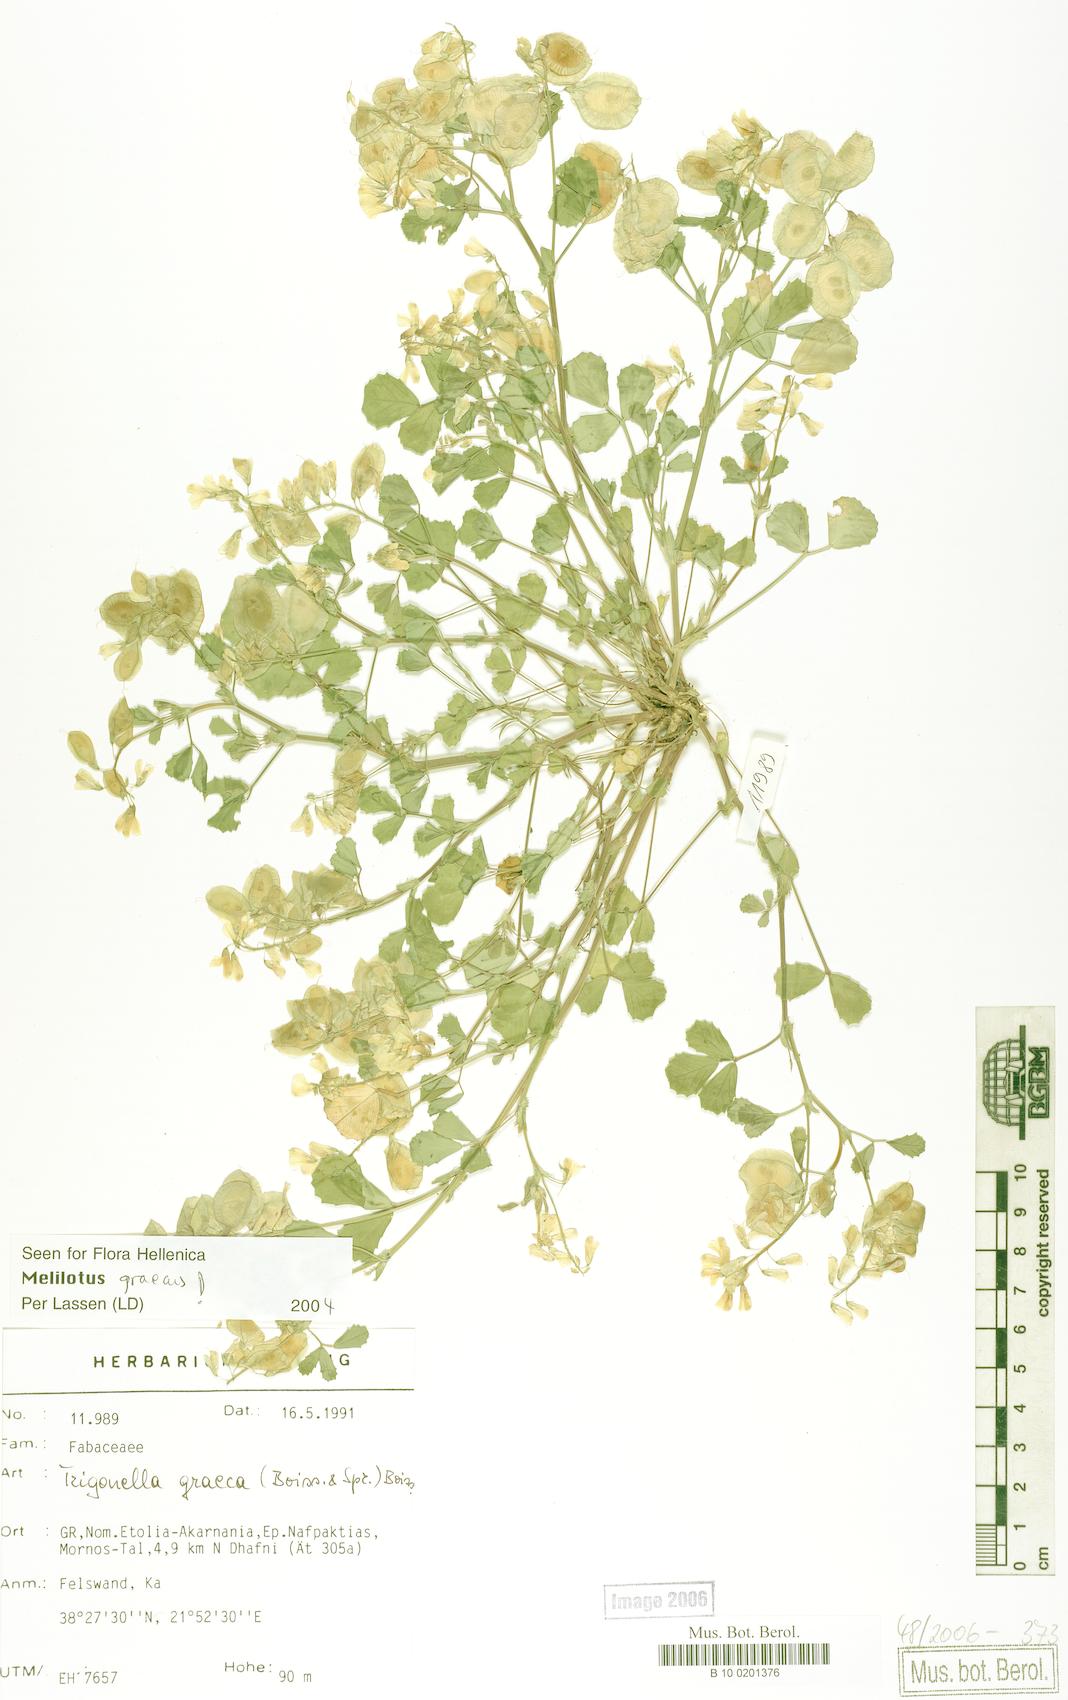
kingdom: Plantae
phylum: Tracheophyta
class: Magnoliopsida
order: Fabales
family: Fabaceae
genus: Trigonella
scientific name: Trigonella graeca
